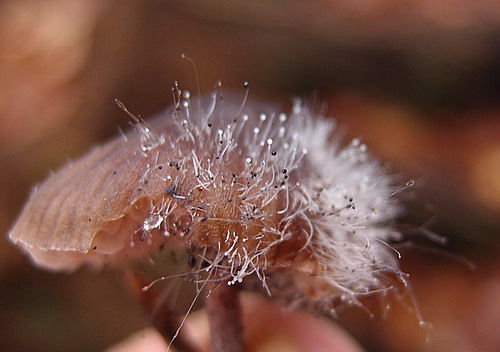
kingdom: Fungi
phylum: Mucoromycota
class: Mucoromycetes
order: Mucorales
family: Phycomycetaceae
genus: Spinellus
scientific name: Spinellus fusiger
